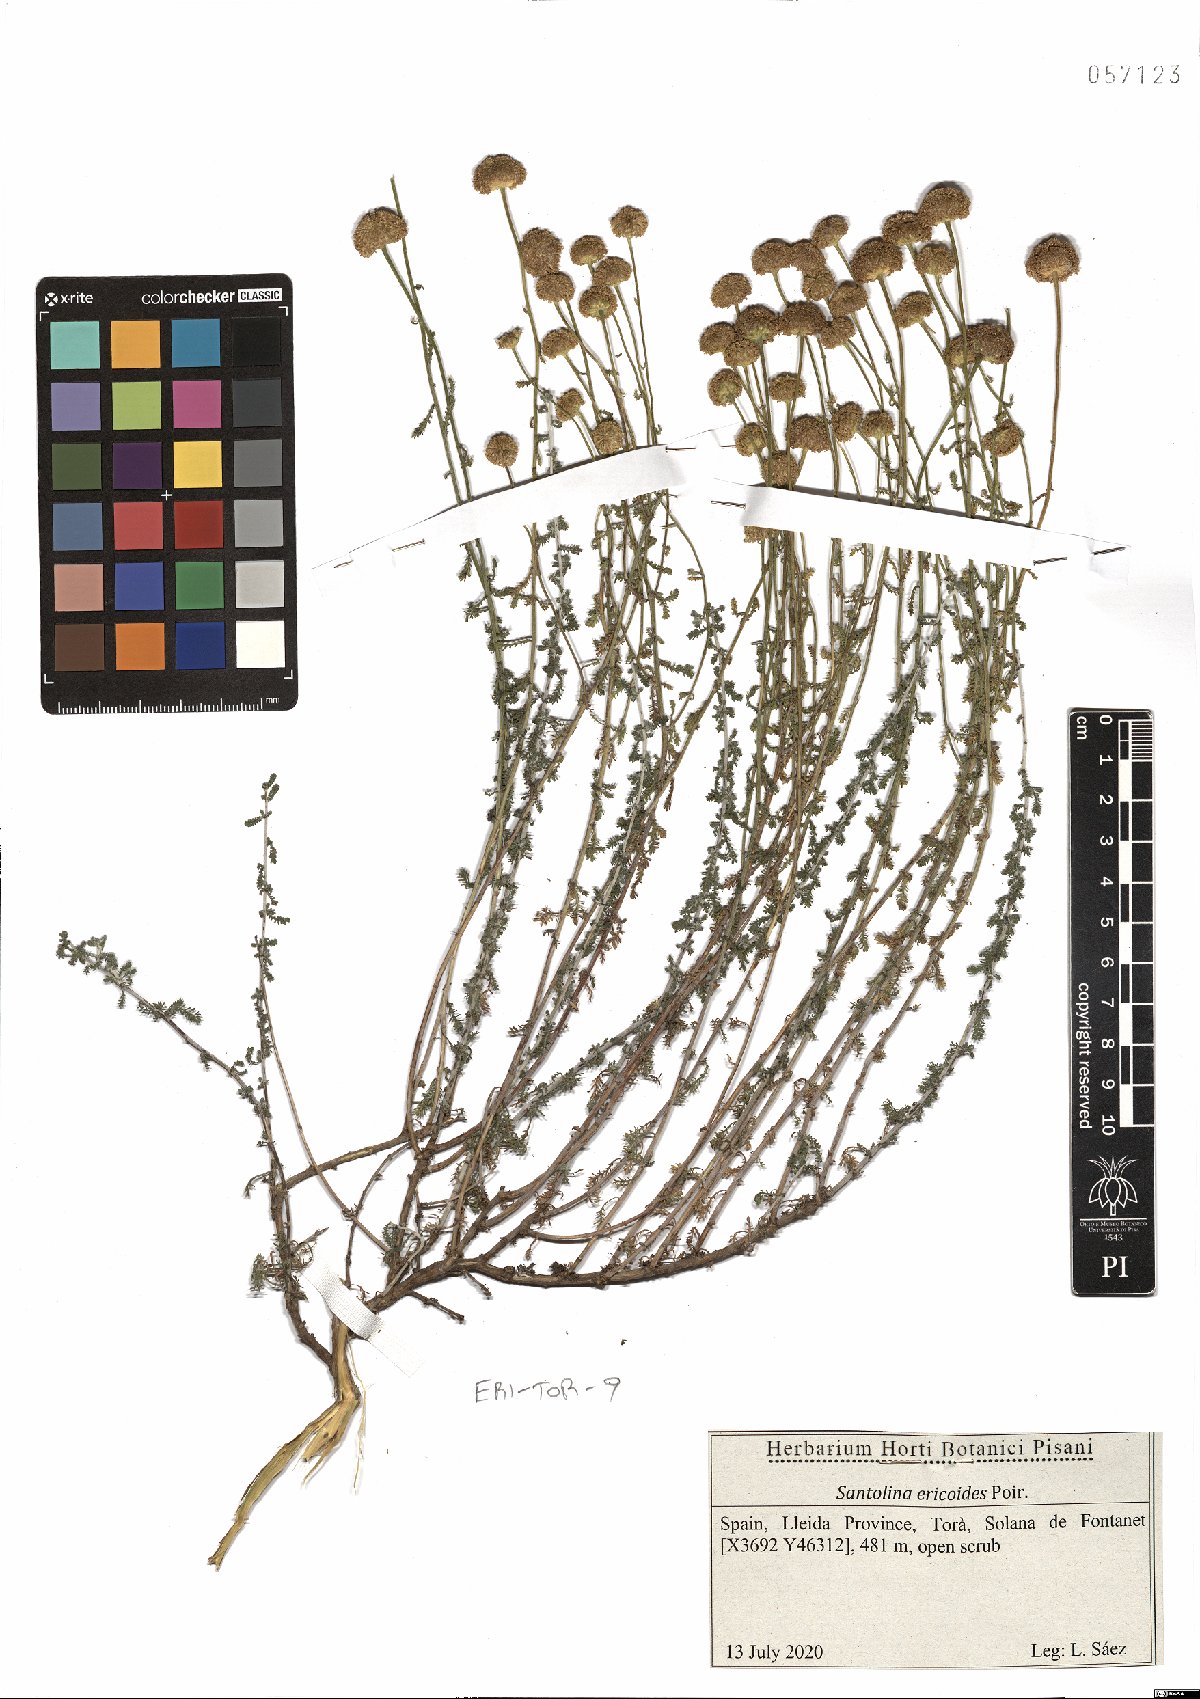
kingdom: Plantae
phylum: Tracheophyta
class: Magnoliopsida
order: Asterales
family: Asteraceae
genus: Santolina
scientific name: Santolina ericoides
